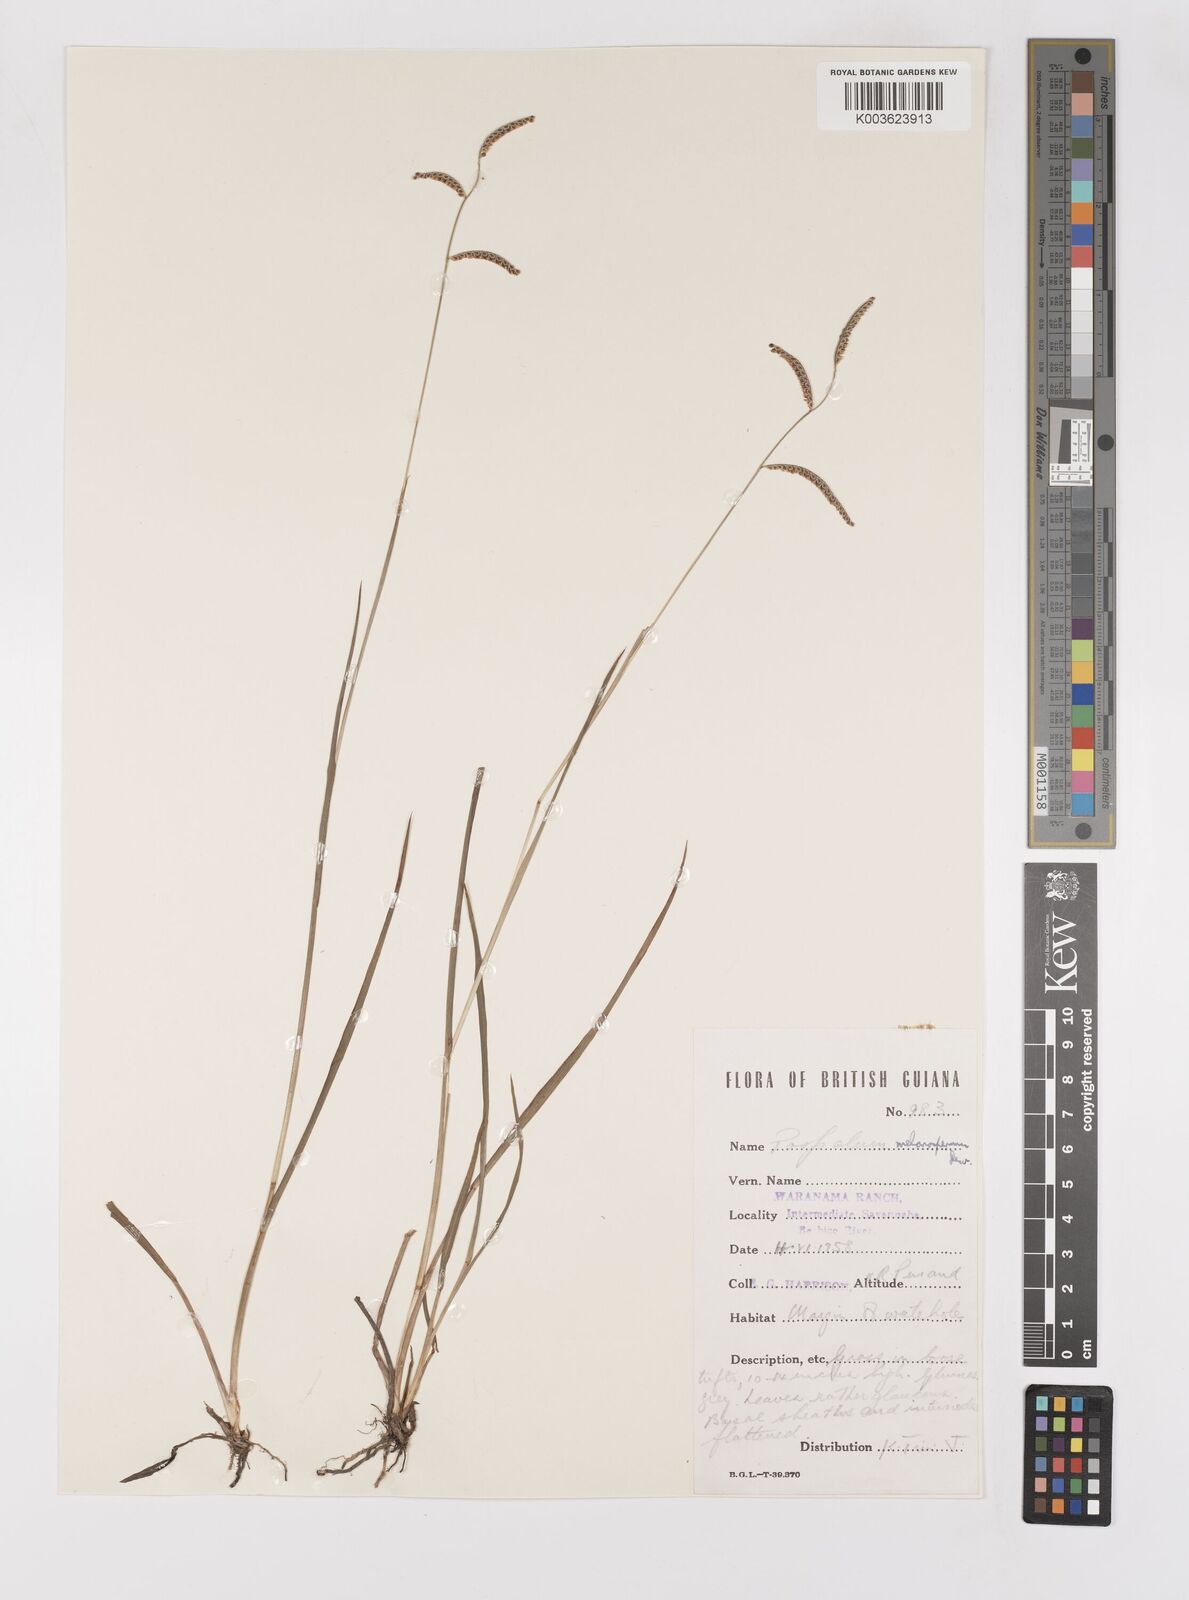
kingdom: Plantae
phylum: Tracheophyta
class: Liliopsida
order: Poales
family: Poaceae
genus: Paspalum
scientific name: Paspalum melanospermum
